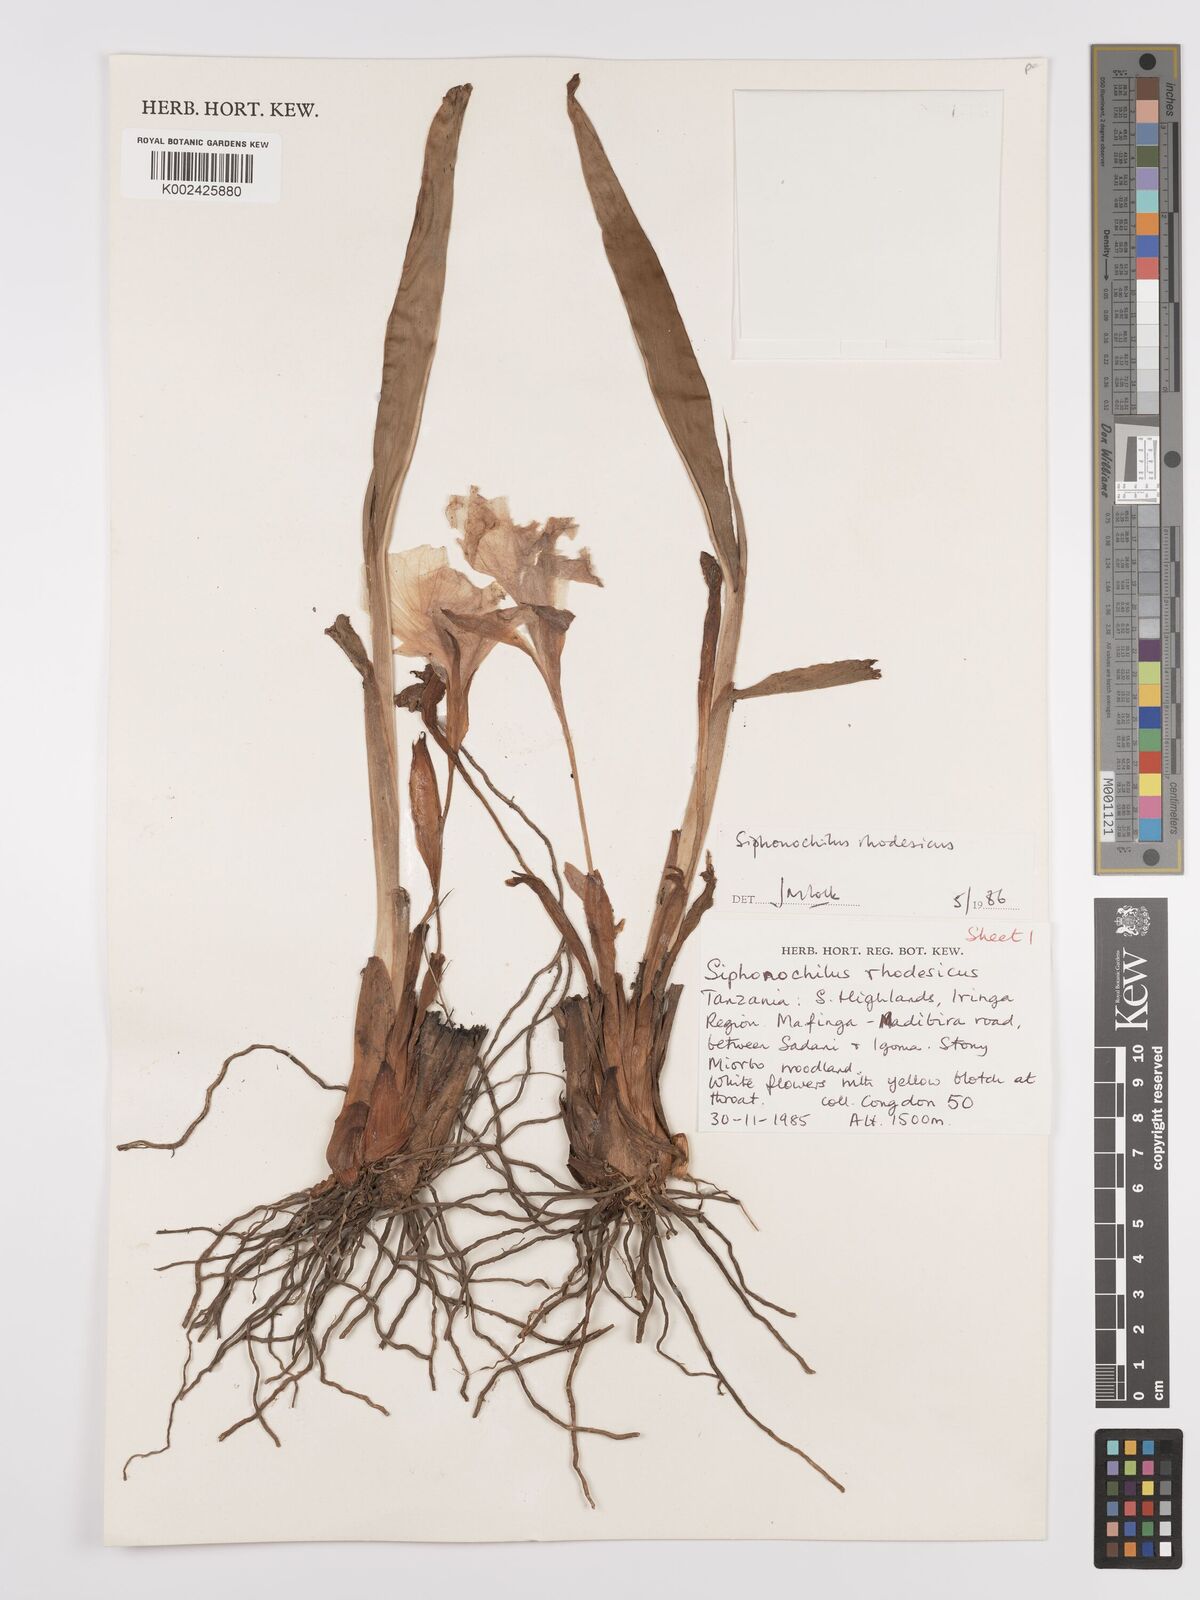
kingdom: Plantae
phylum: Tracheophyta
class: Liliopsida
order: Zingiberales
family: Zingiberaceae
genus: Siphonochilus
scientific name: Siphonochilus rhodesicus
